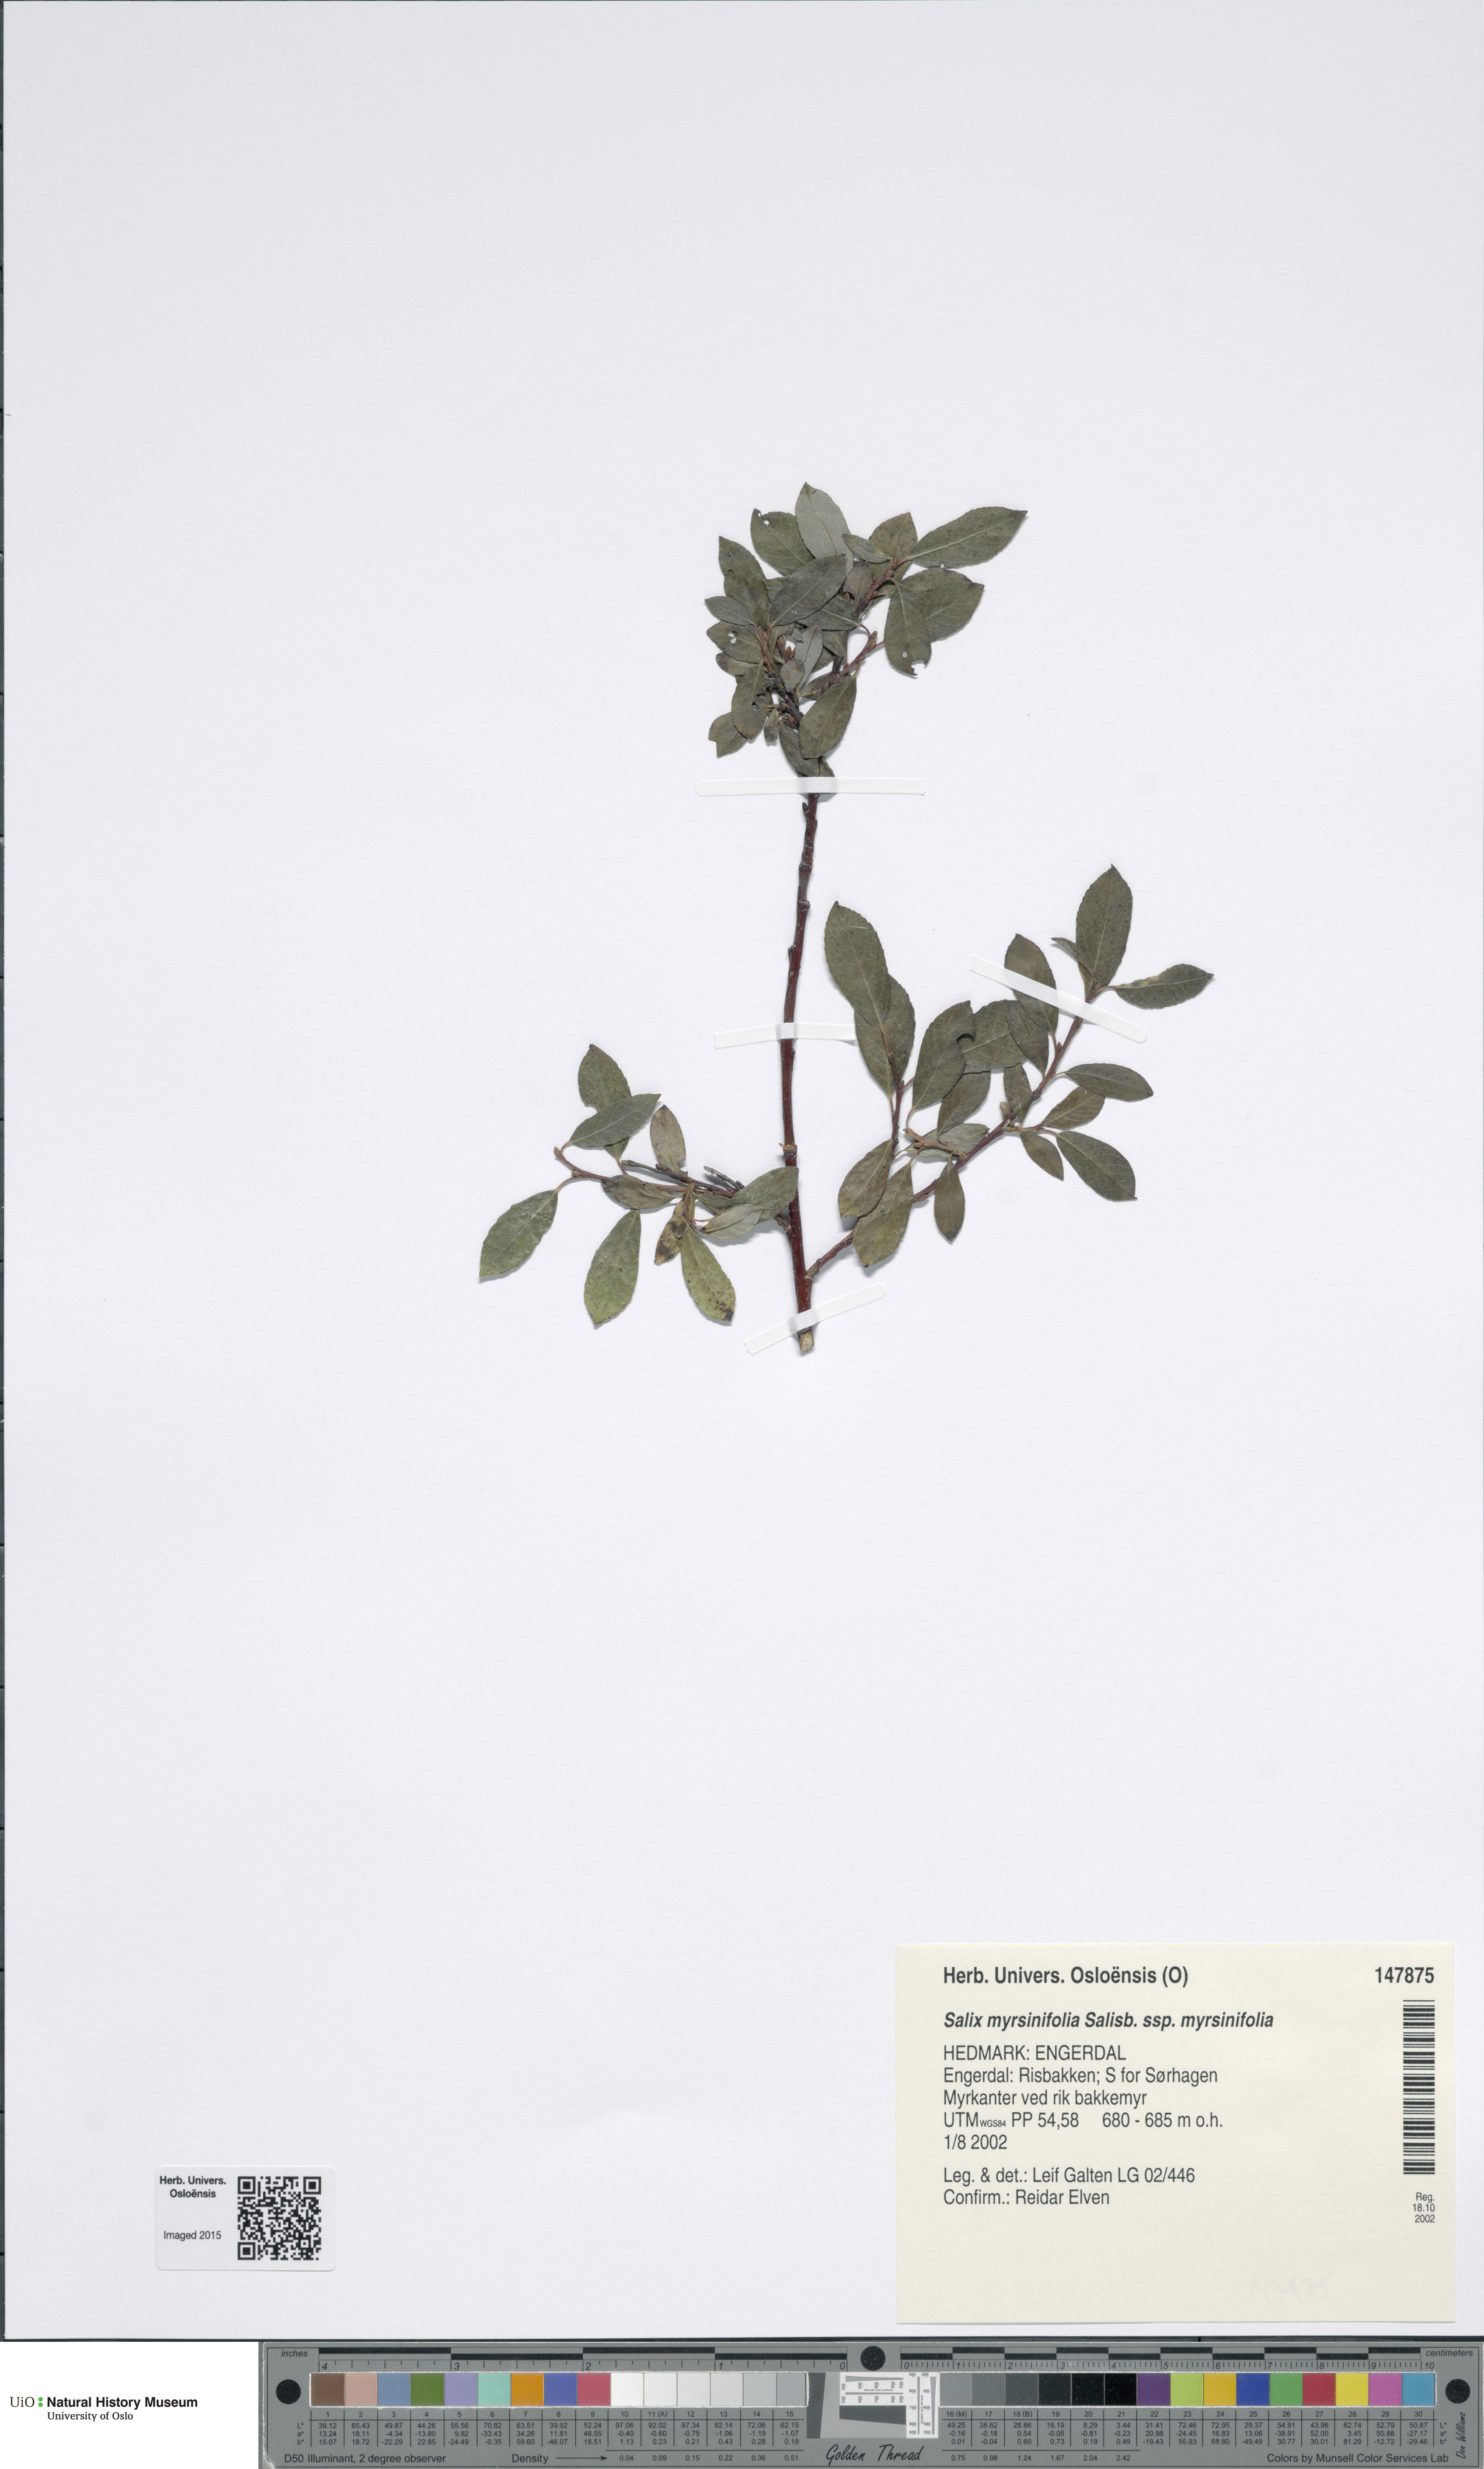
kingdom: Plantae
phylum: Tracheophyta
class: Magnoliopsida
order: Malpighiales
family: Salicaceae
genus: Salix
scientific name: Salix myrsinifolia
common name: Dark-leaved willow
